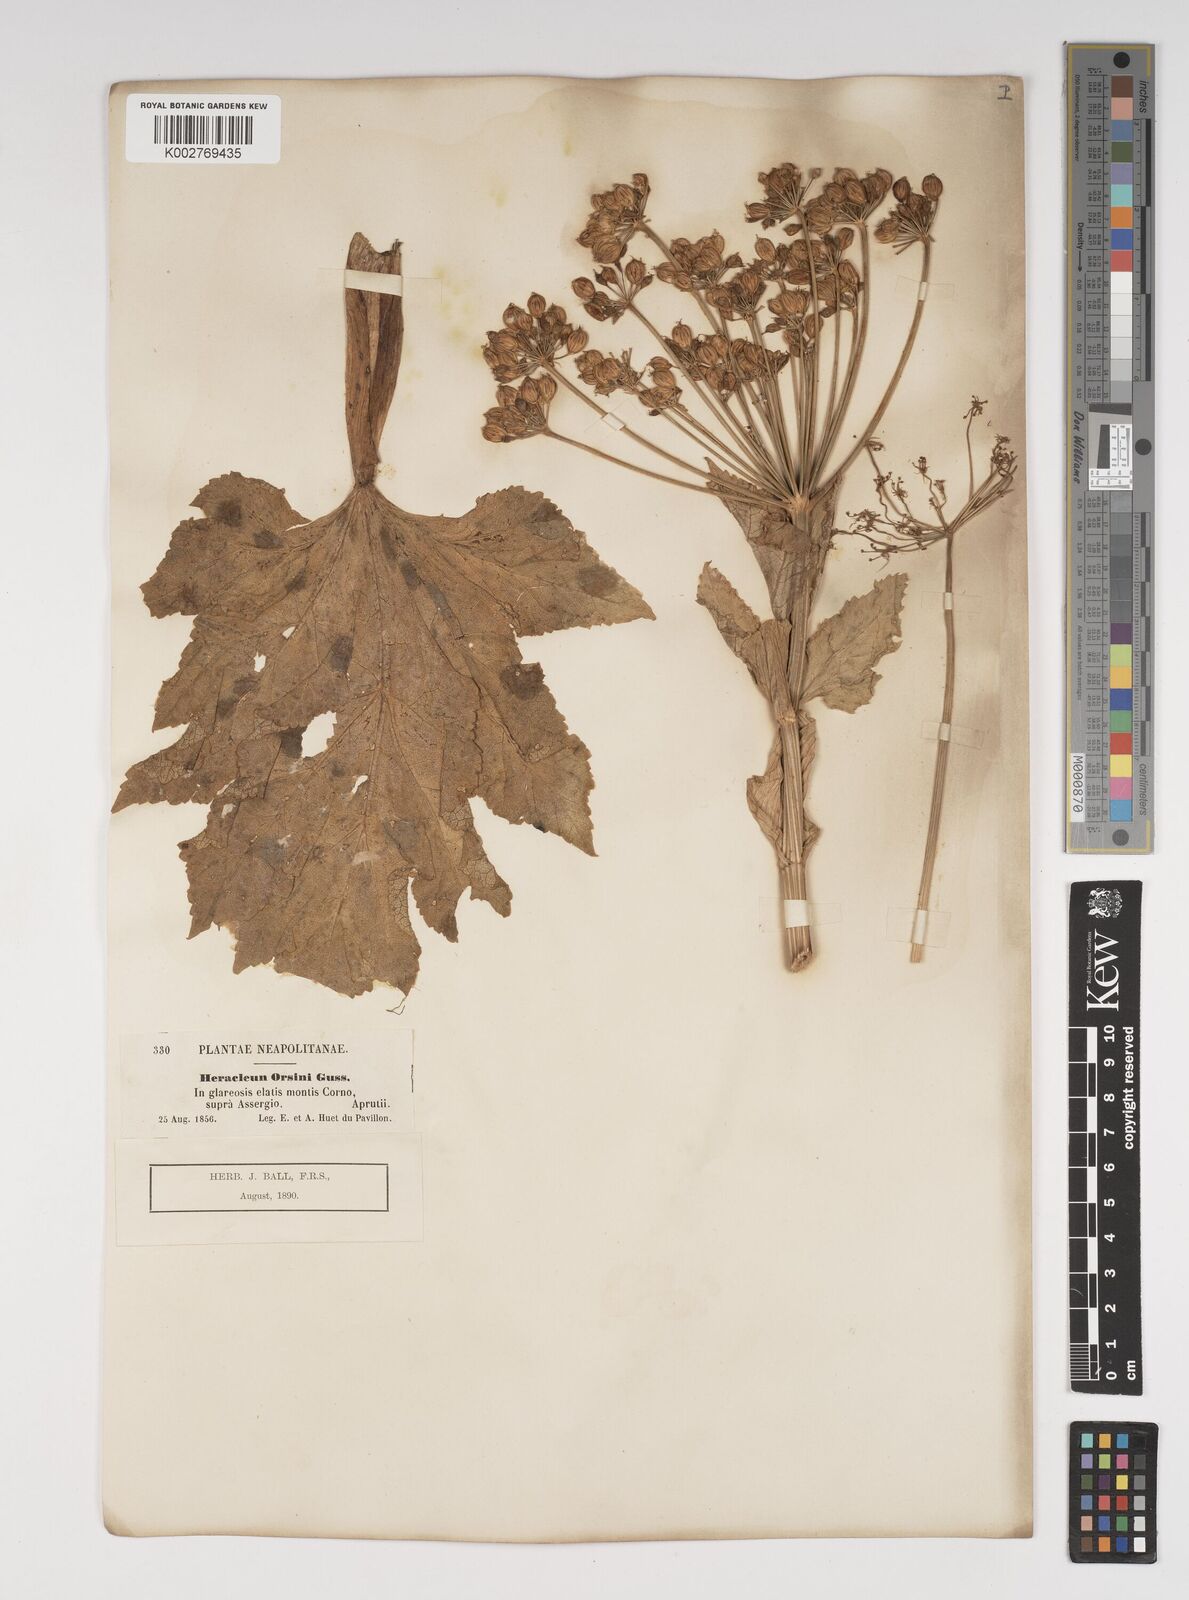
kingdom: Plantae
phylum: Tracheophyta
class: Magnoliopsida
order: Apiales
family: Apiaceae
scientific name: Apiaceae
